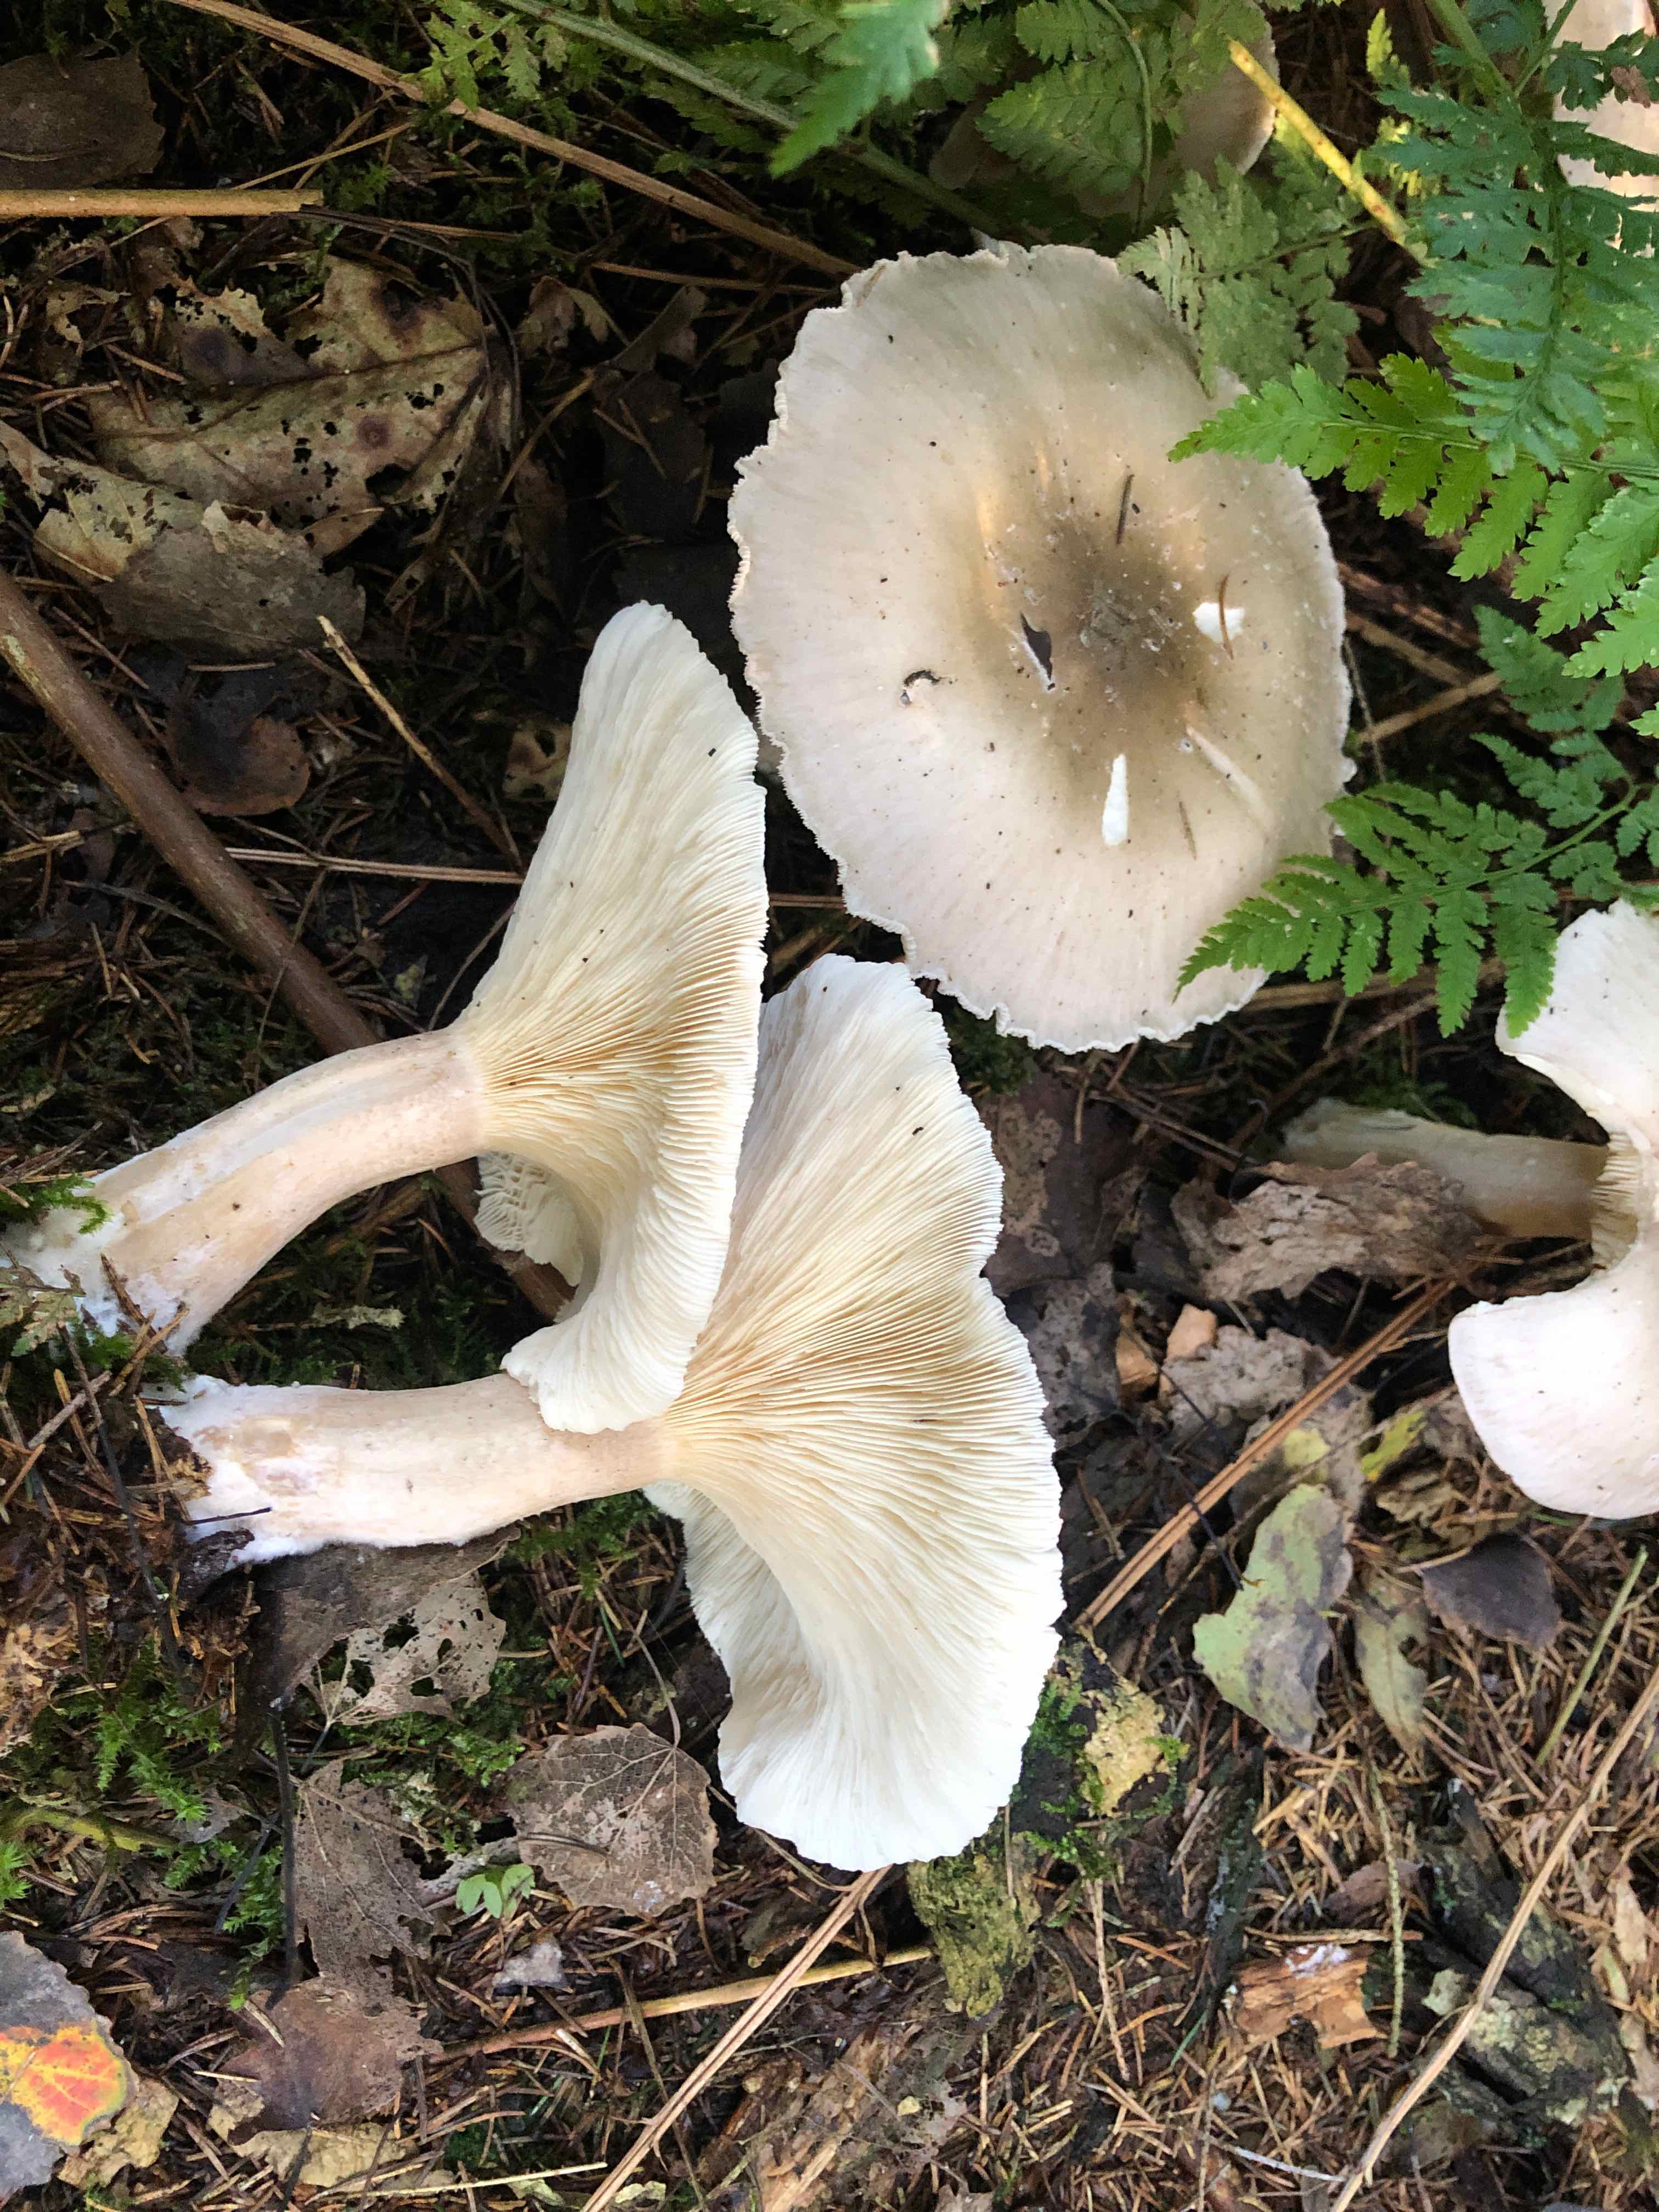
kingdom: Fungi
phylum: Basidiomycota
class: Agaricomycetes
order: Agaricales
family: Tricholomataceae
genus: Clitocybe
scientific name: Clitocybe nebularis
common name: tåge-tragthat
